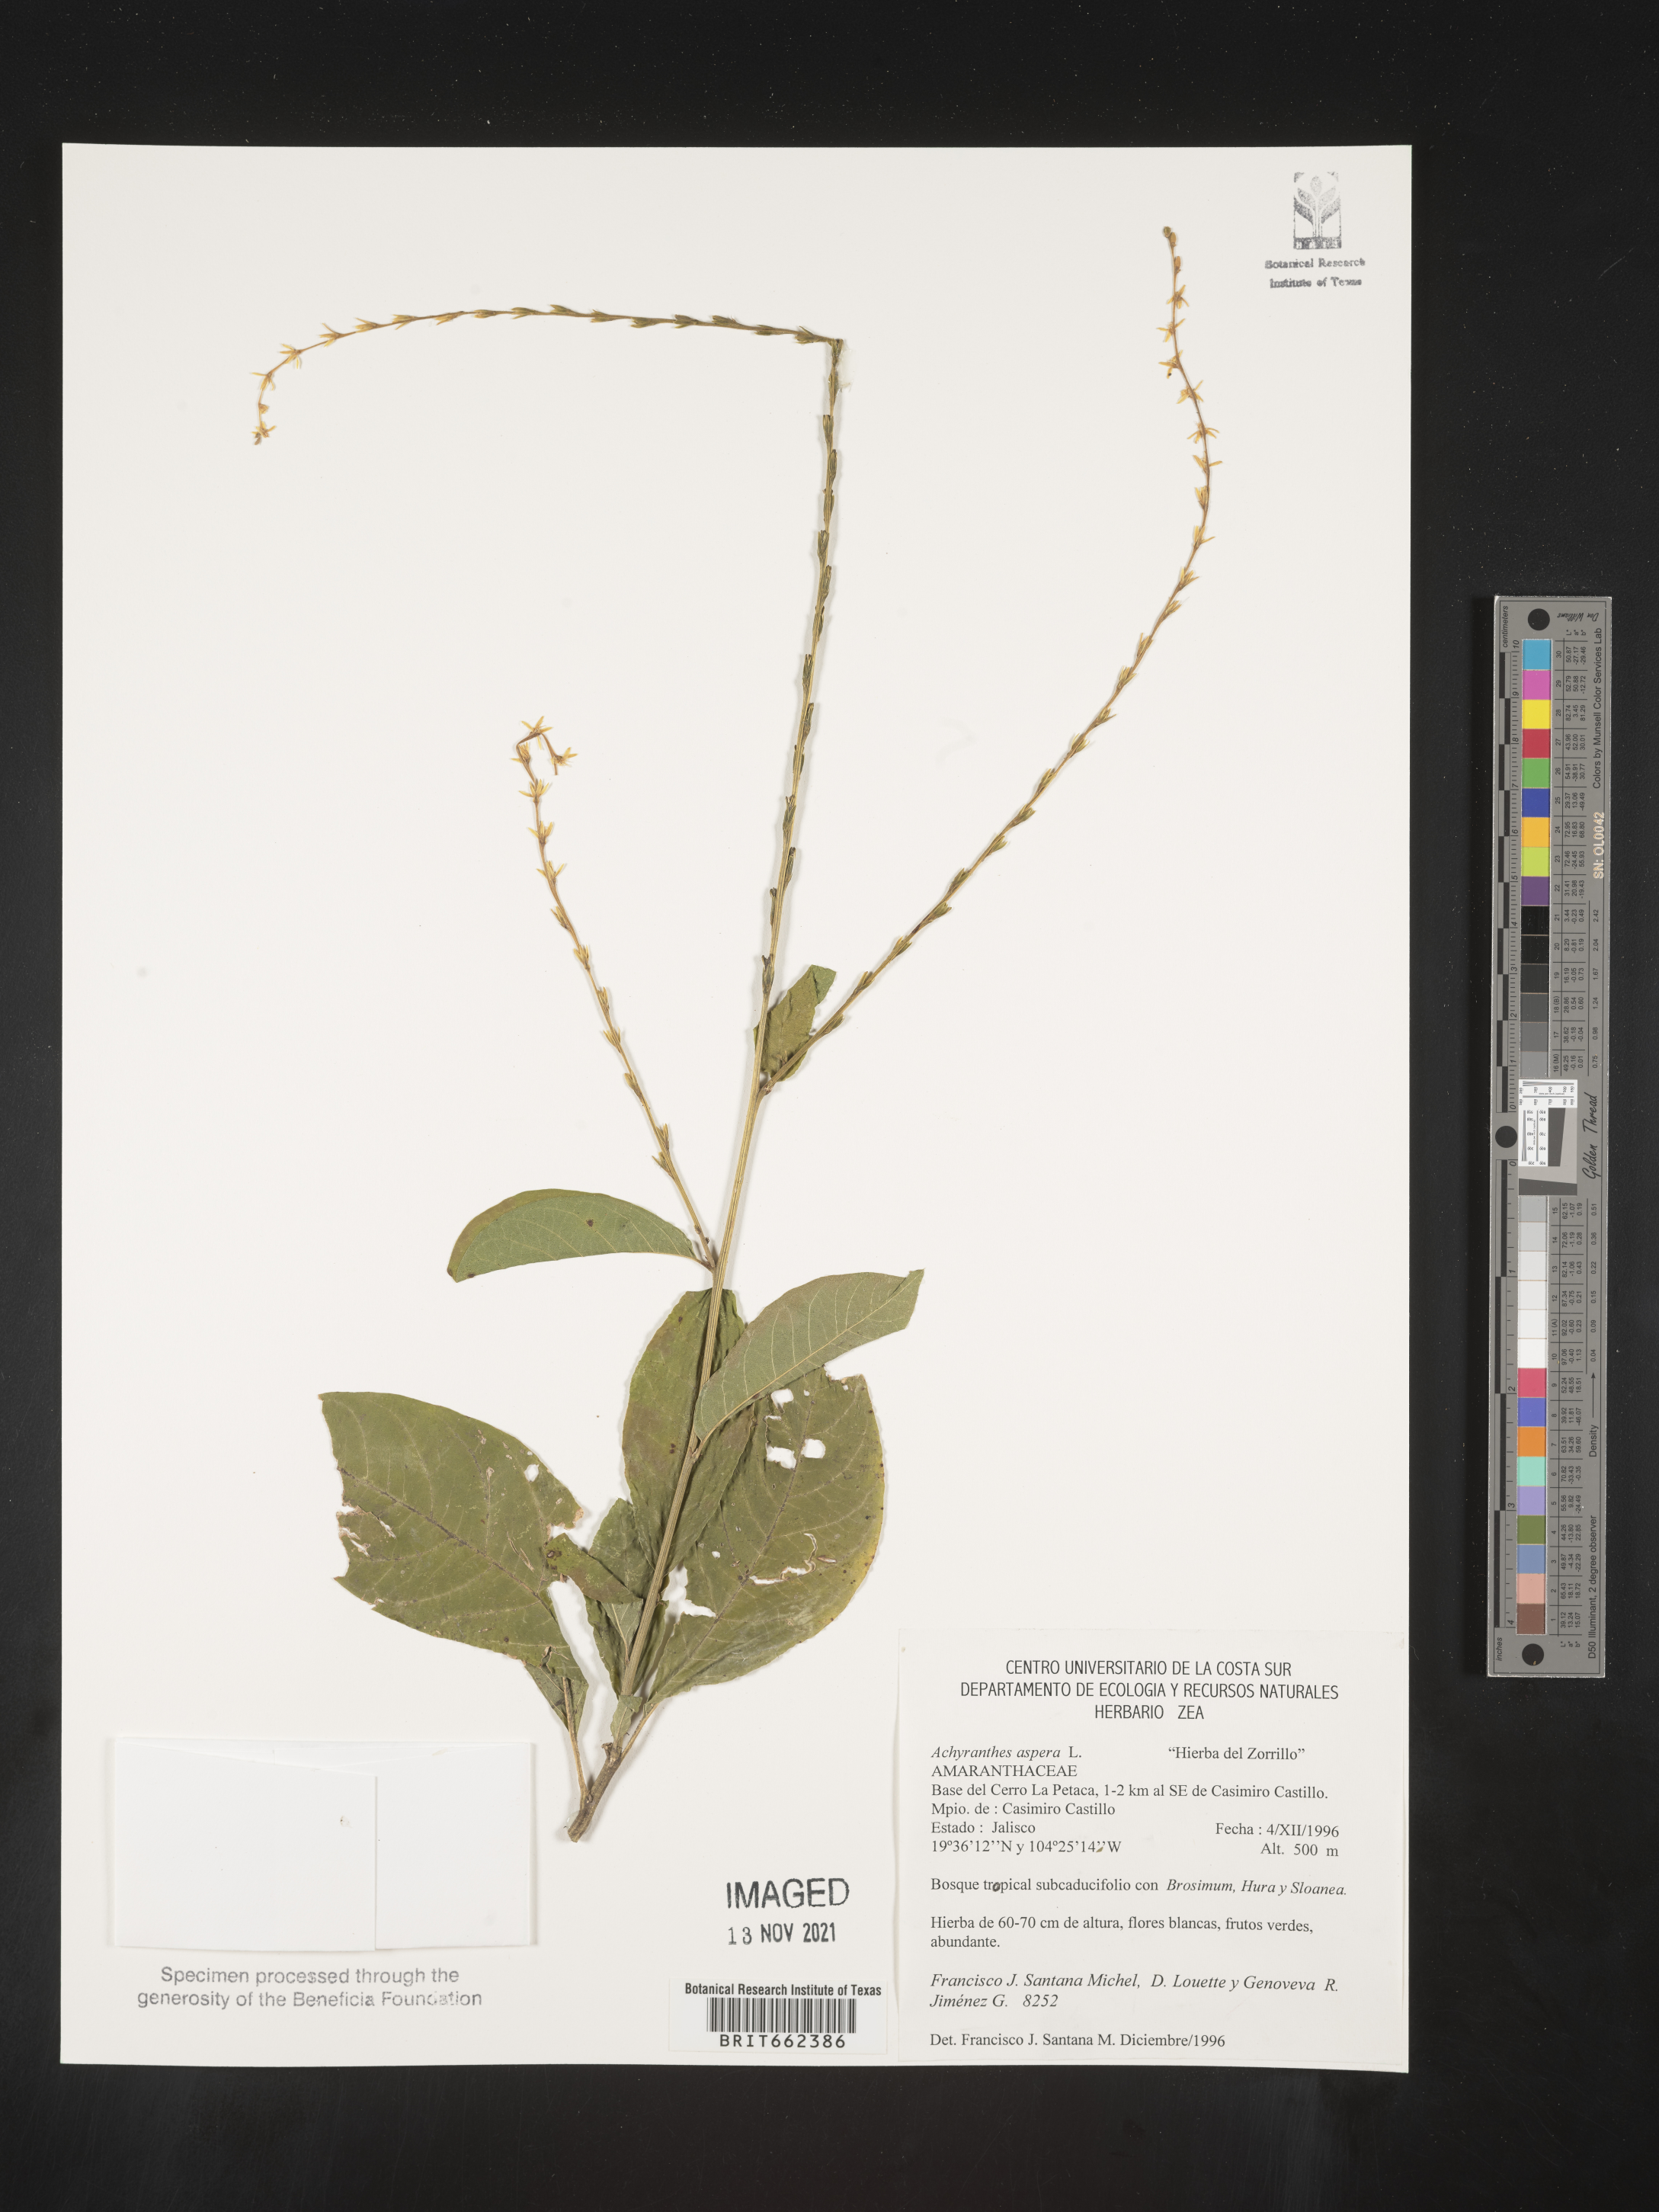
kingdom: Plantae
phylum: Tracheophyta
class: Magnoliopsida
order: Caryophyllales
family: Amaranthaceae
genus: Achyranthes
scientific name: Achyranthes
